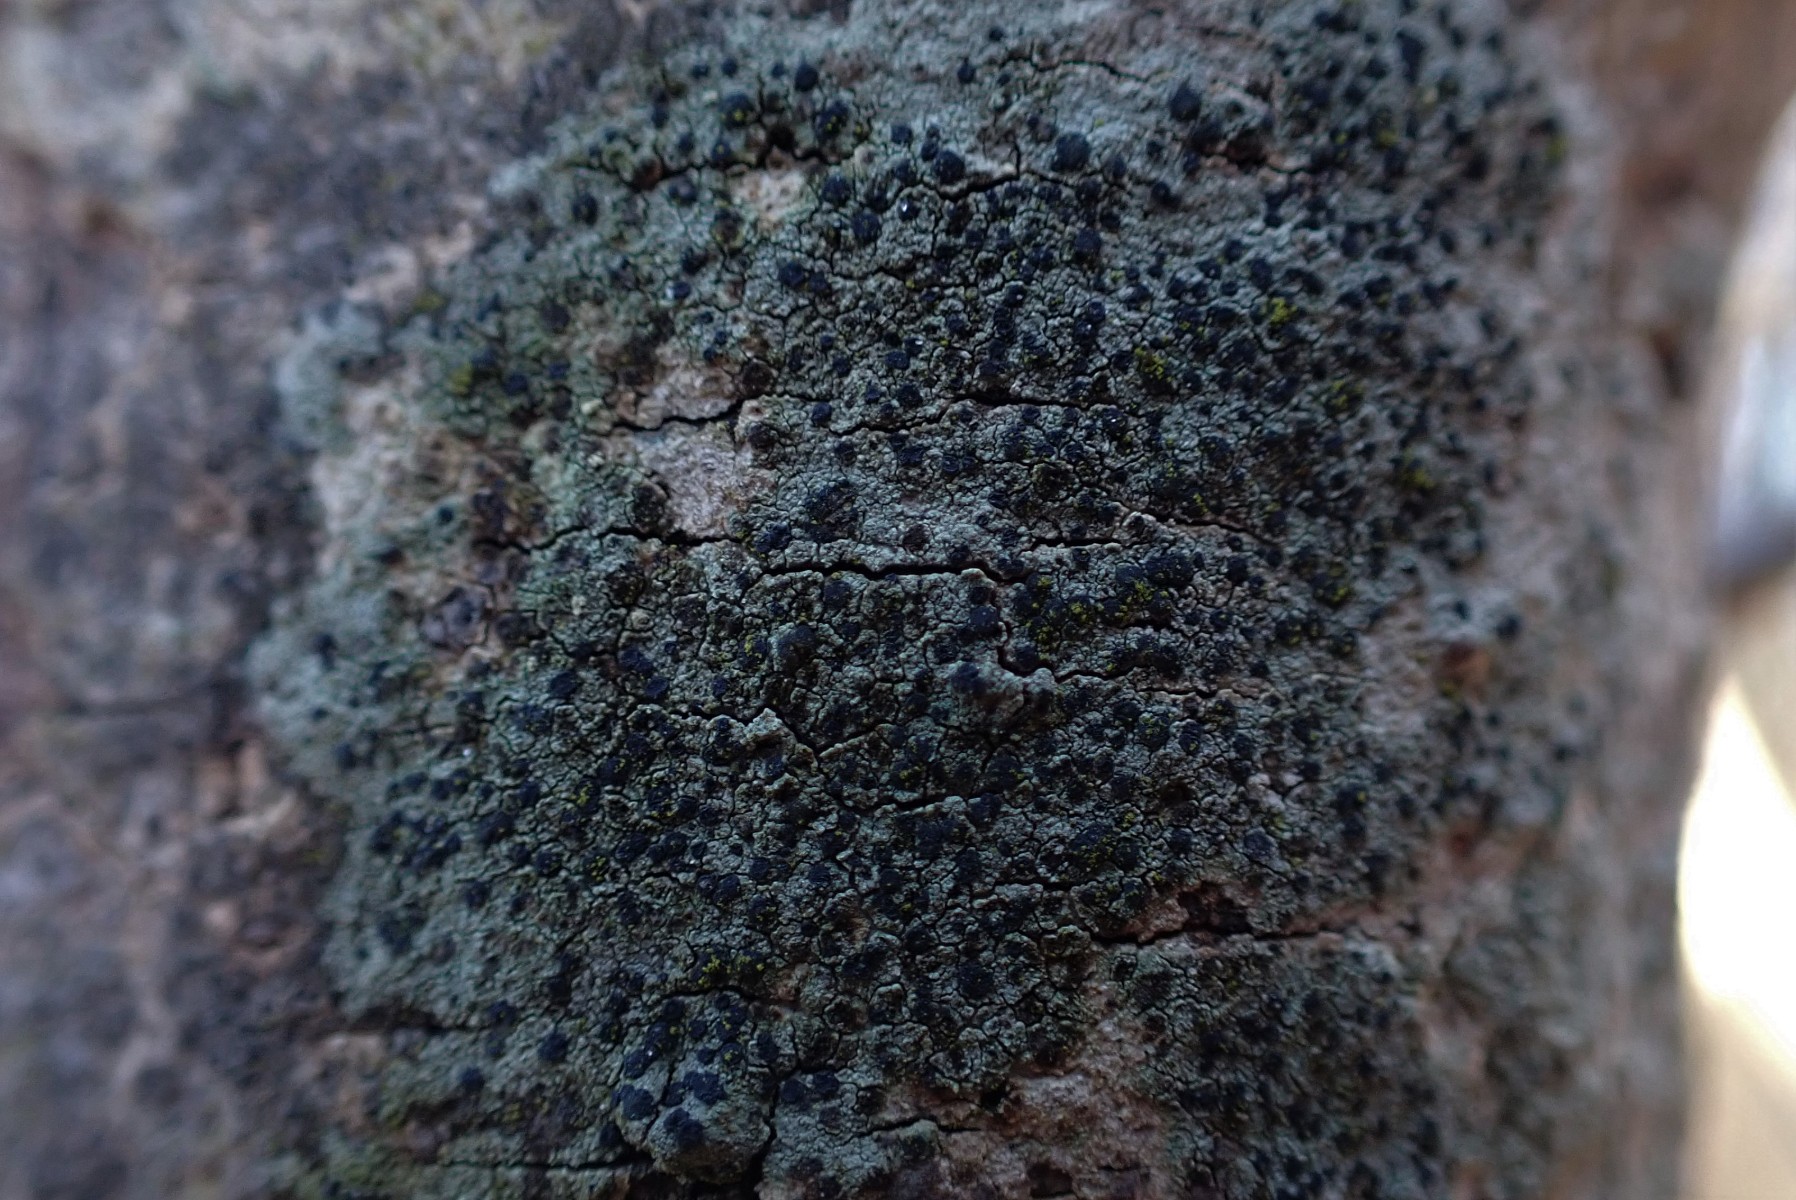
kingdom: Fungi
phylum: Ascomycota
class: Lecanoromycetes
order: Lecanorales
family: Lecanoraceae
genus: Lecidella
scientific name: Lecidella elaeochroma
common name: grågrøn skivelav
